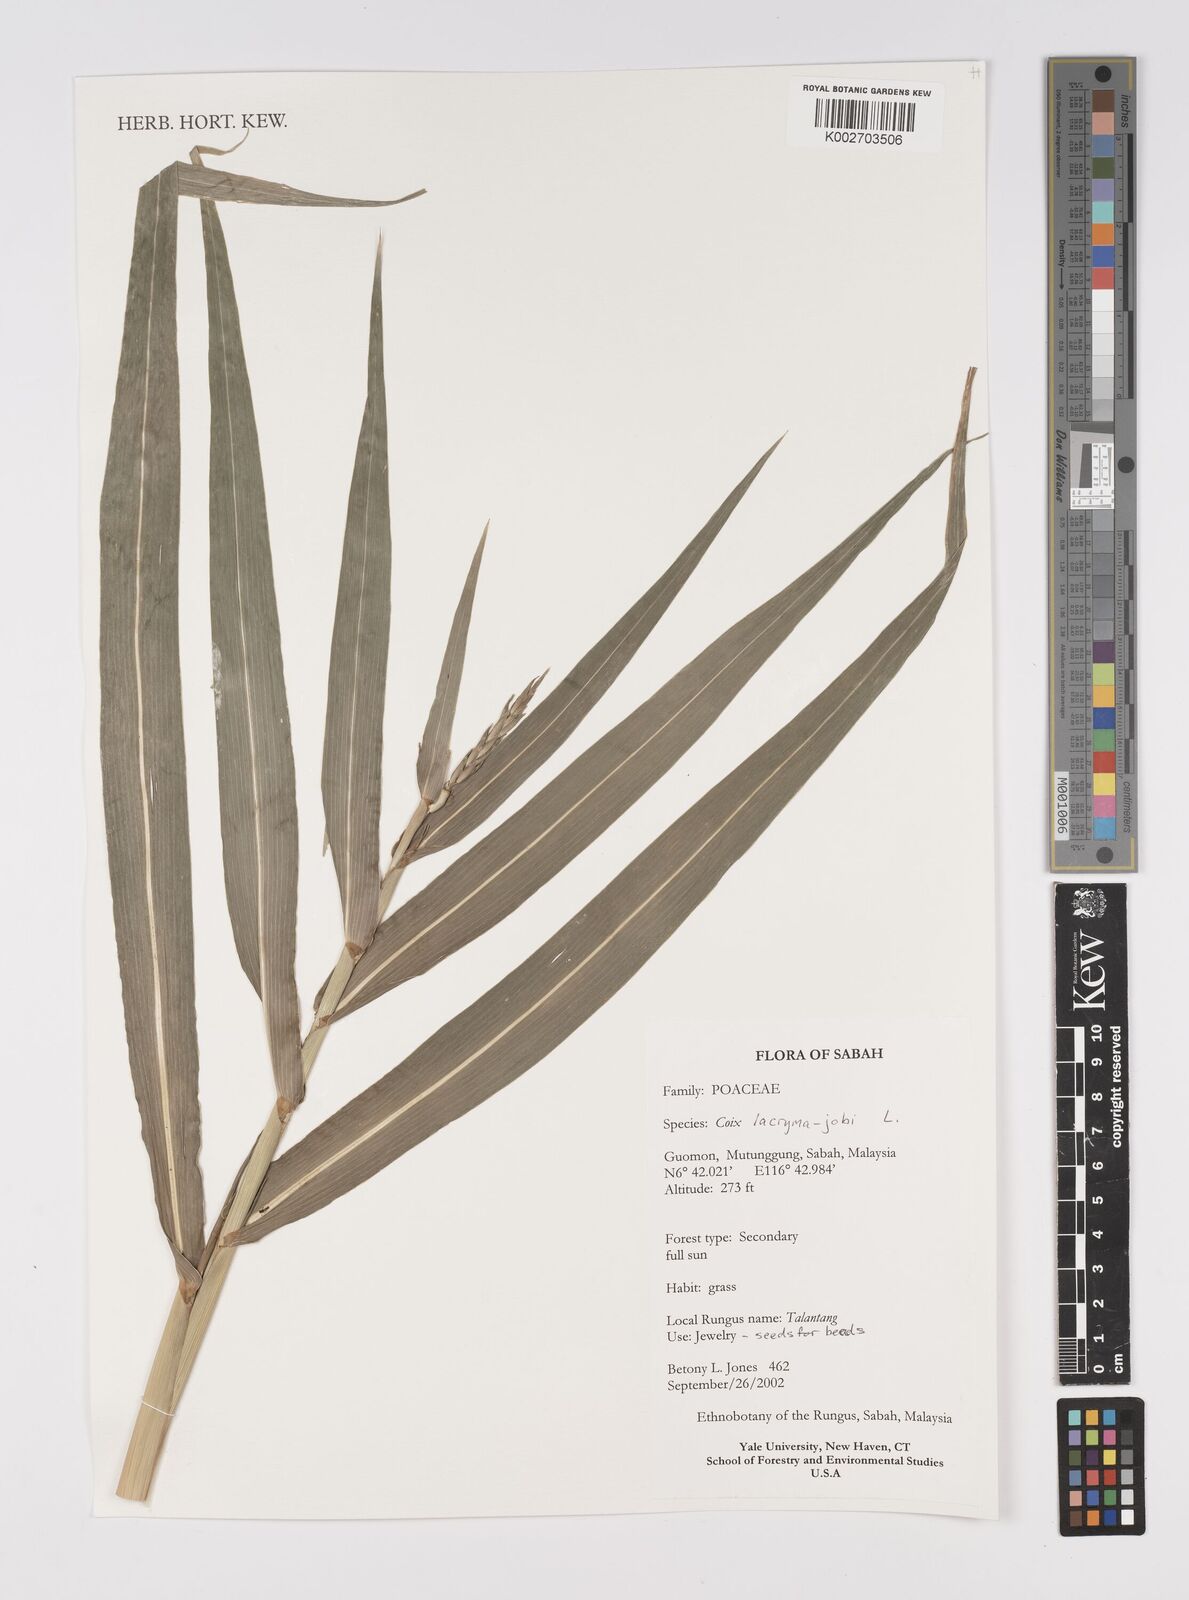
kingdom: Plantae
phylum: Tracheophyta
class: Liliopsida
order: Poales
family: Poaceae
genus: Coix
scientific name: Coix lacryma-jobi
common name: Job's tears
